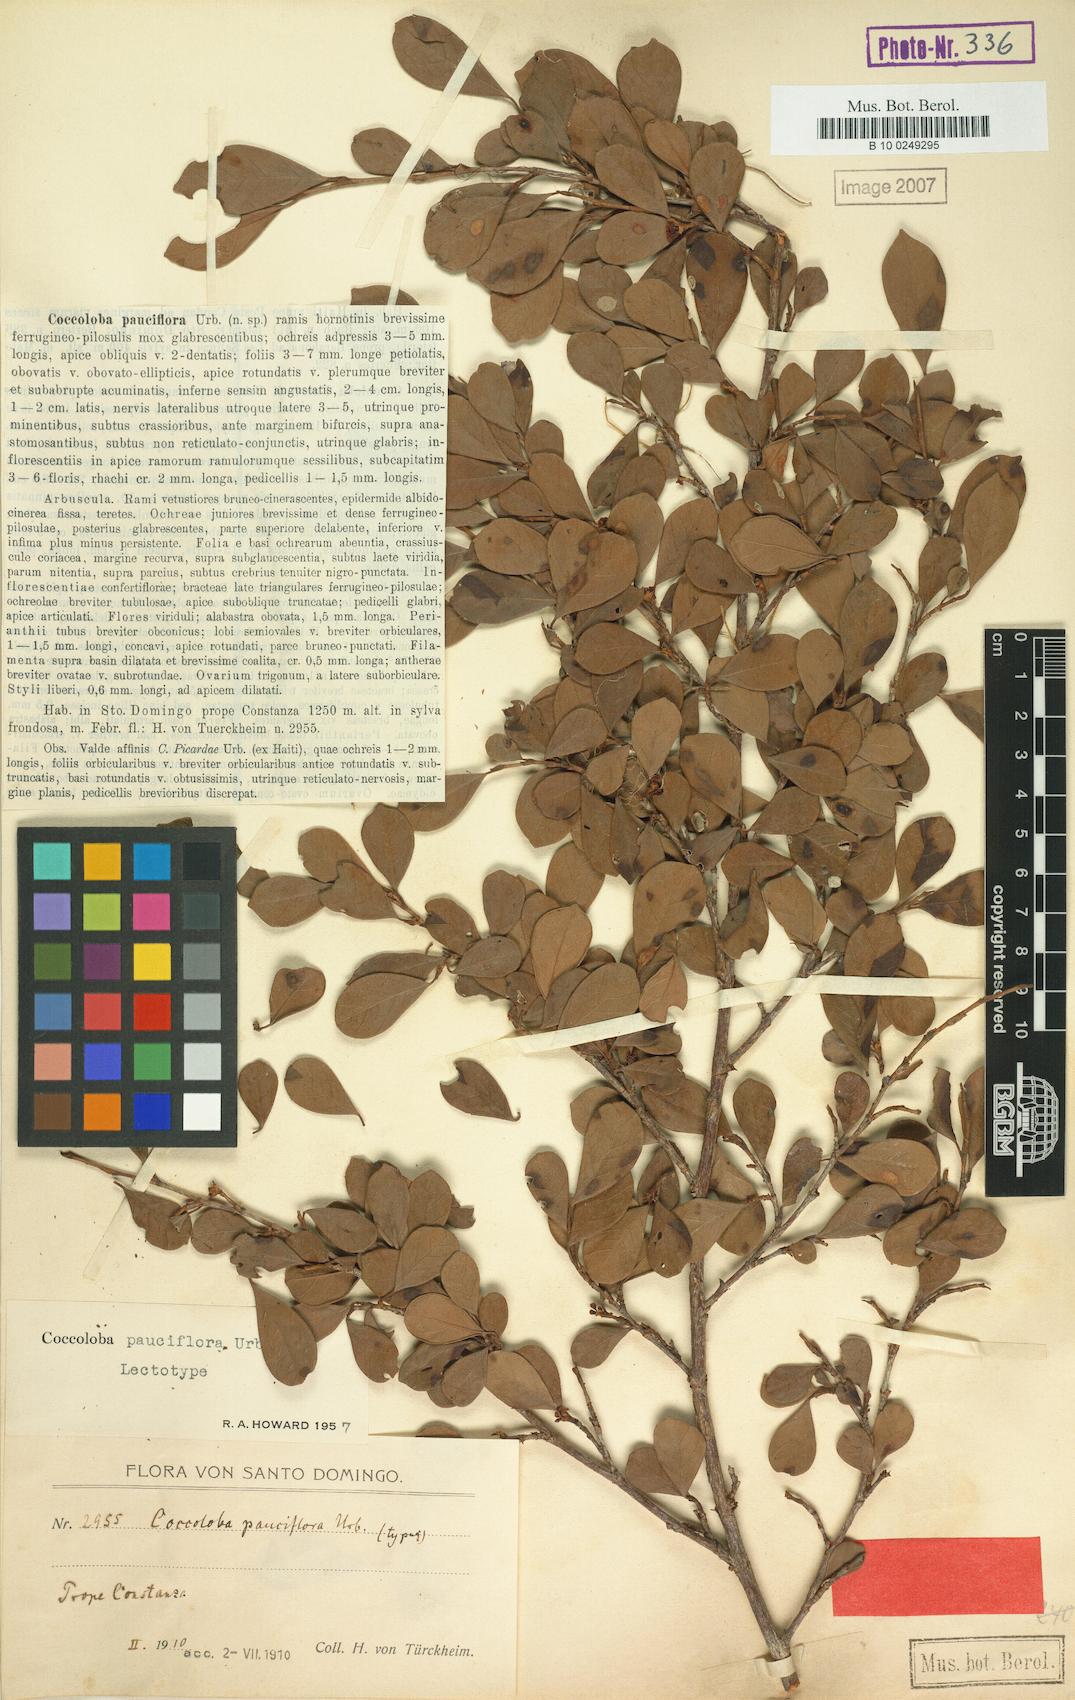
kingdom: Plantae
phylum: Tracheophyta
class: Magnoliopsida
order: Caryophyllales
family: Polygonaceae
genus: Coccoloba
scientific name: Coccoloba pauciflora
